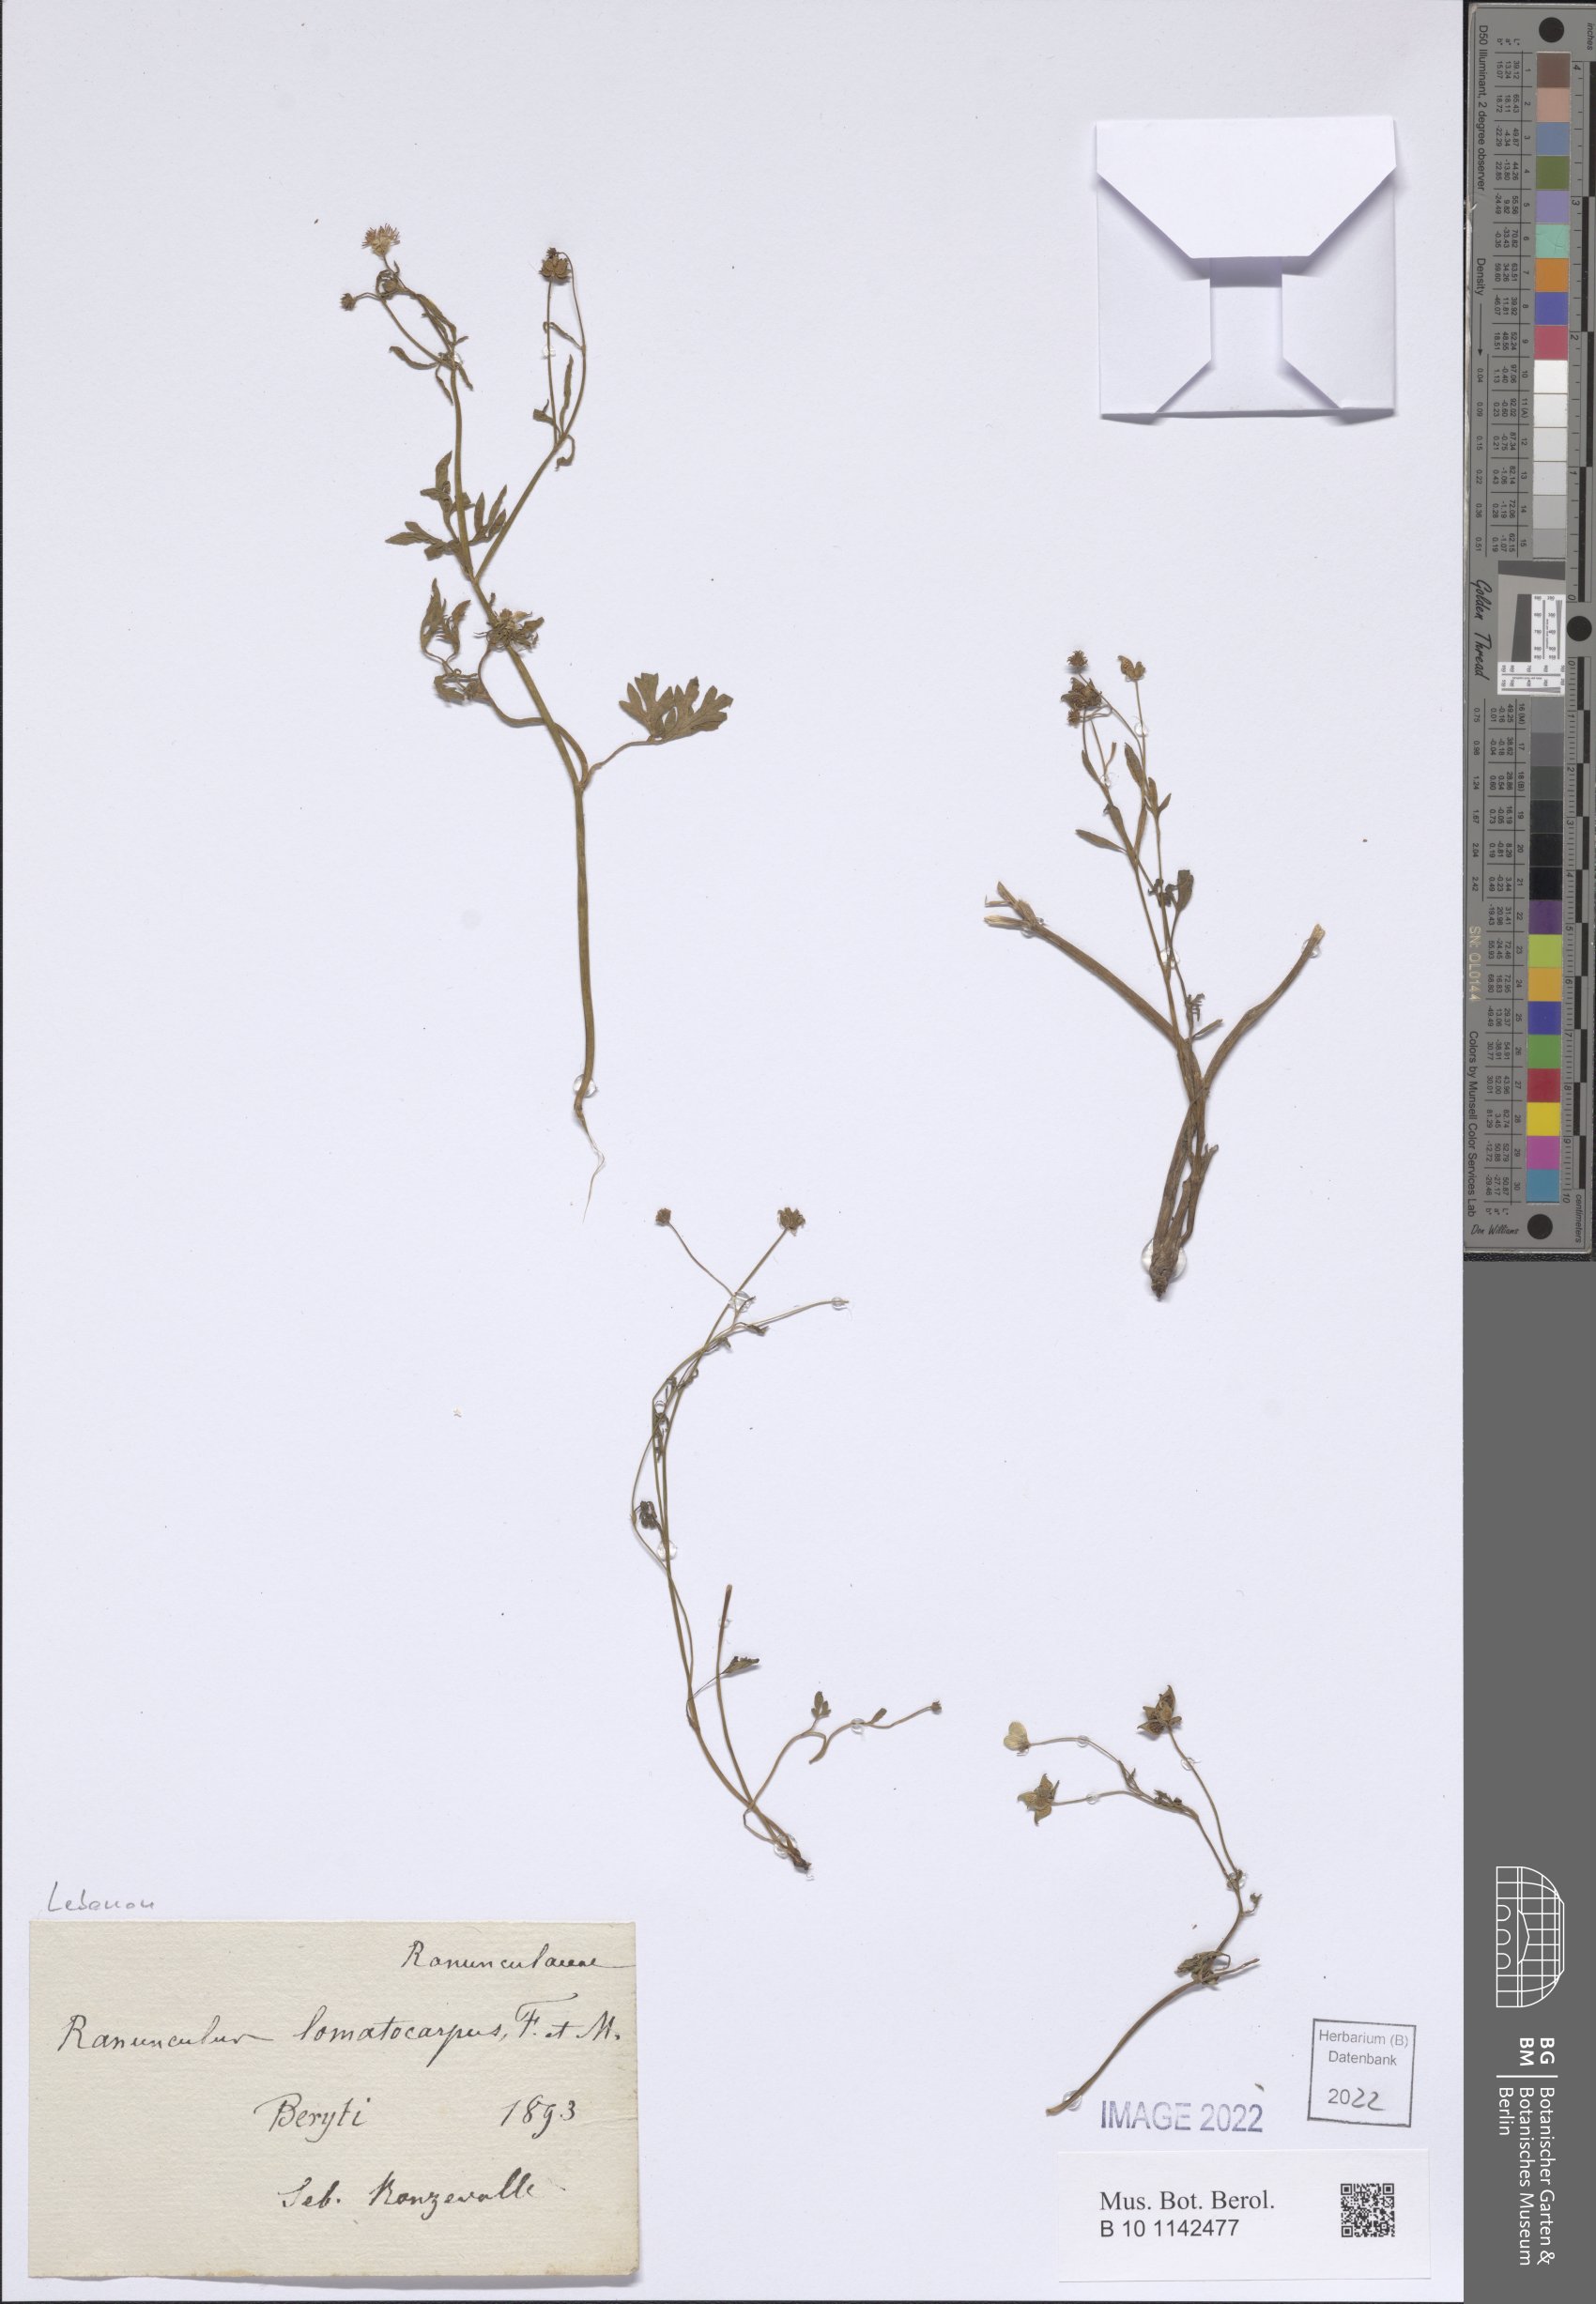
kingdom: Plantae
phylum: Tracheophyta
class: Magnoliopsida
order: Ranunculales
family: Ranunculaceae
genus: Ranunculus
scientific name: Ranunculus cornutus
